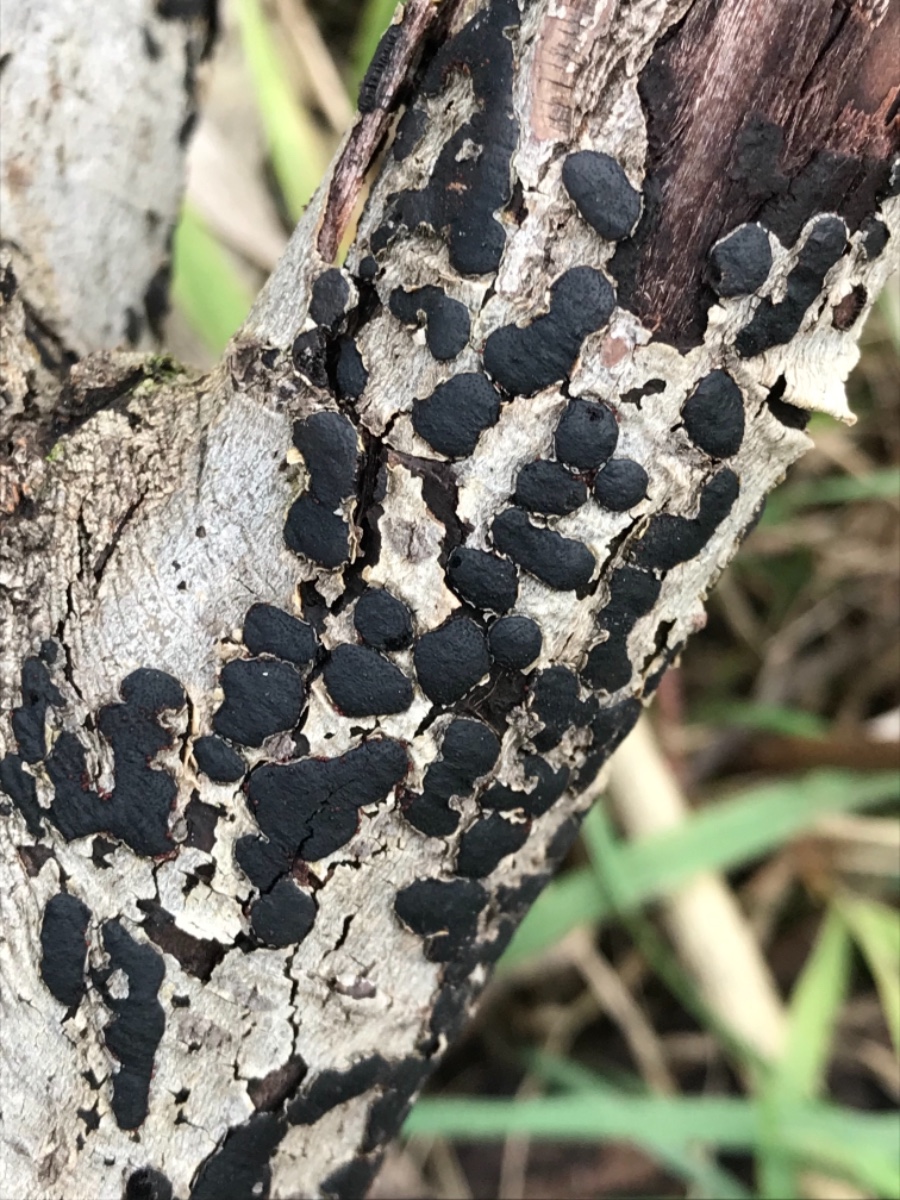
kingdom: Fungi
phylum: Ascomycota
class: Sordariomycetes
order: Xylariales
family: Diatrypaceae
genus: Diatrype
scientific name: Diatrype bullata
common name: pile-kulskorpe
